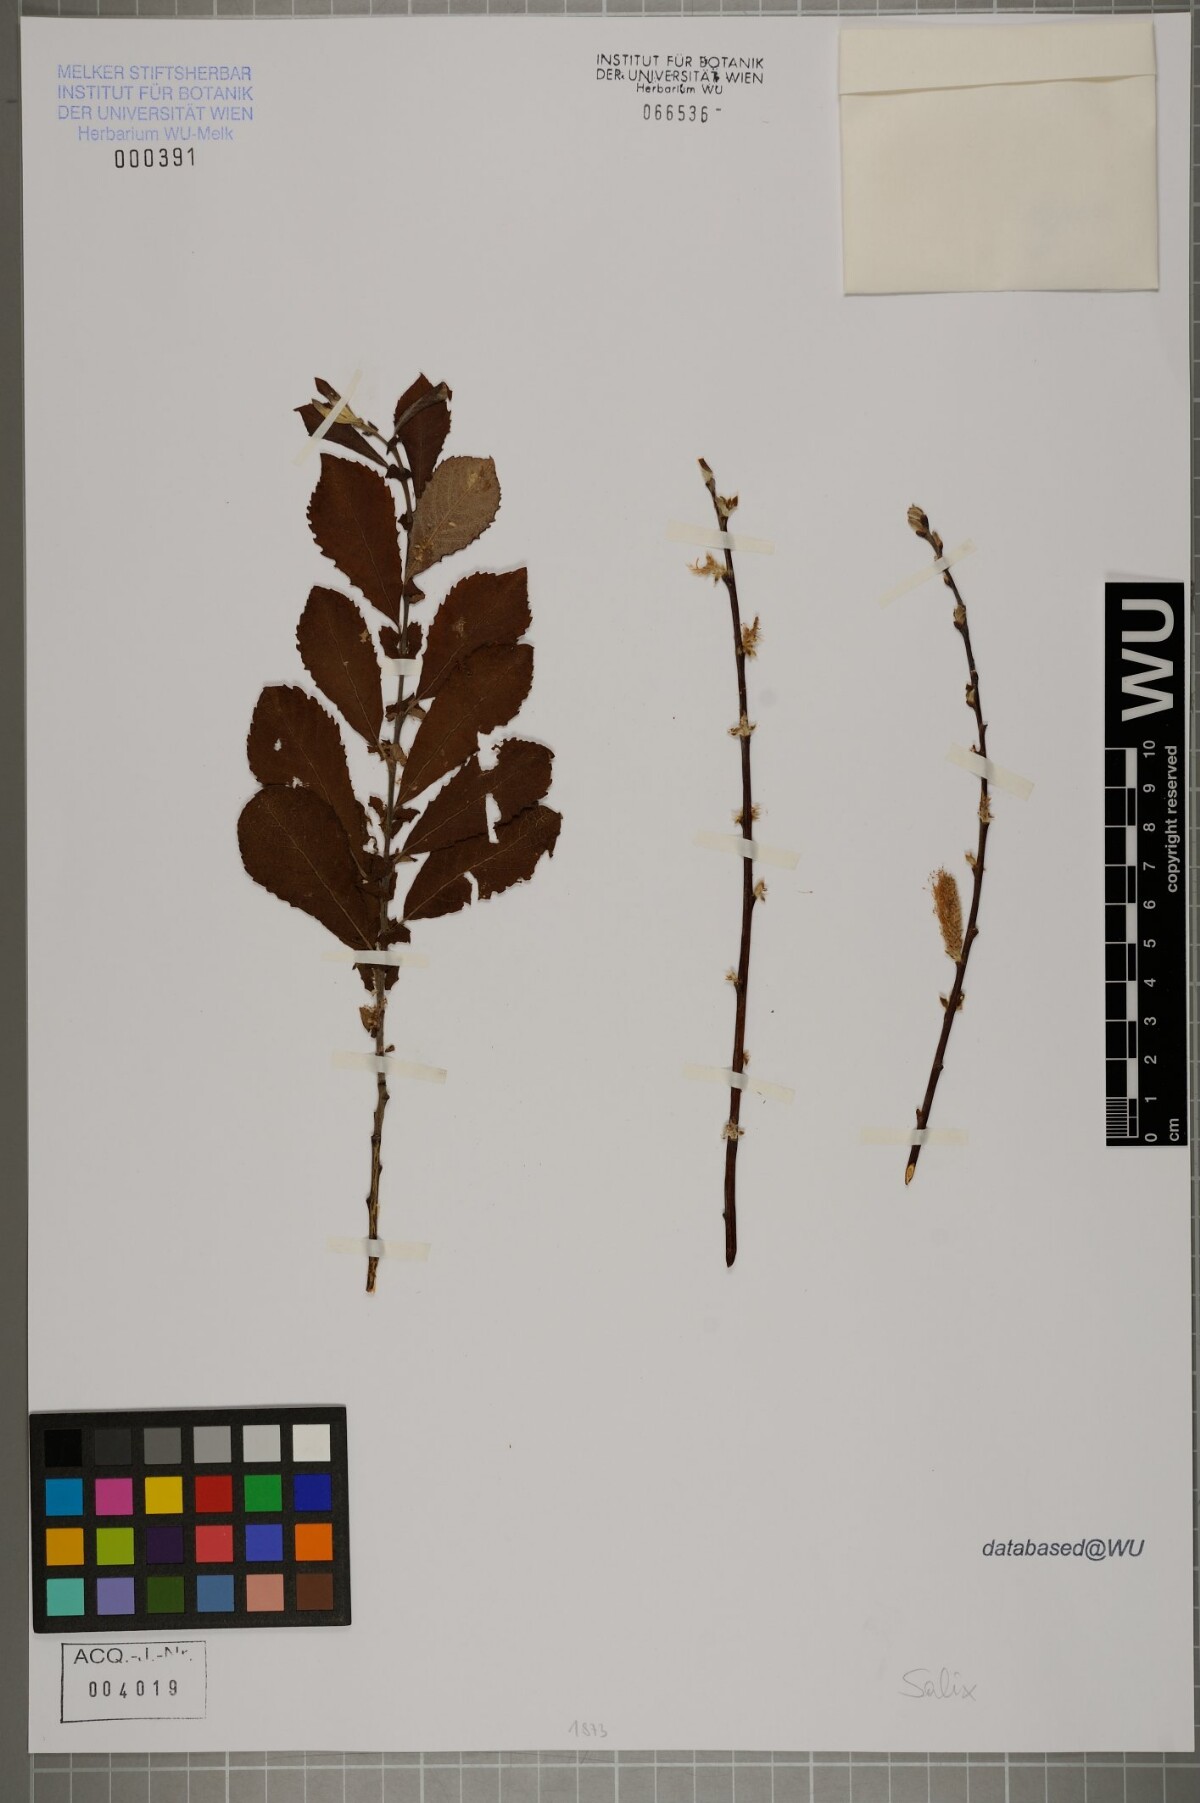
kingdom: Plantae
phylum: Tracheophyta
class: Magnoliopsida
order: Malpighiales
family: Salicaceae
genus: Salix
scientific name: Salix
